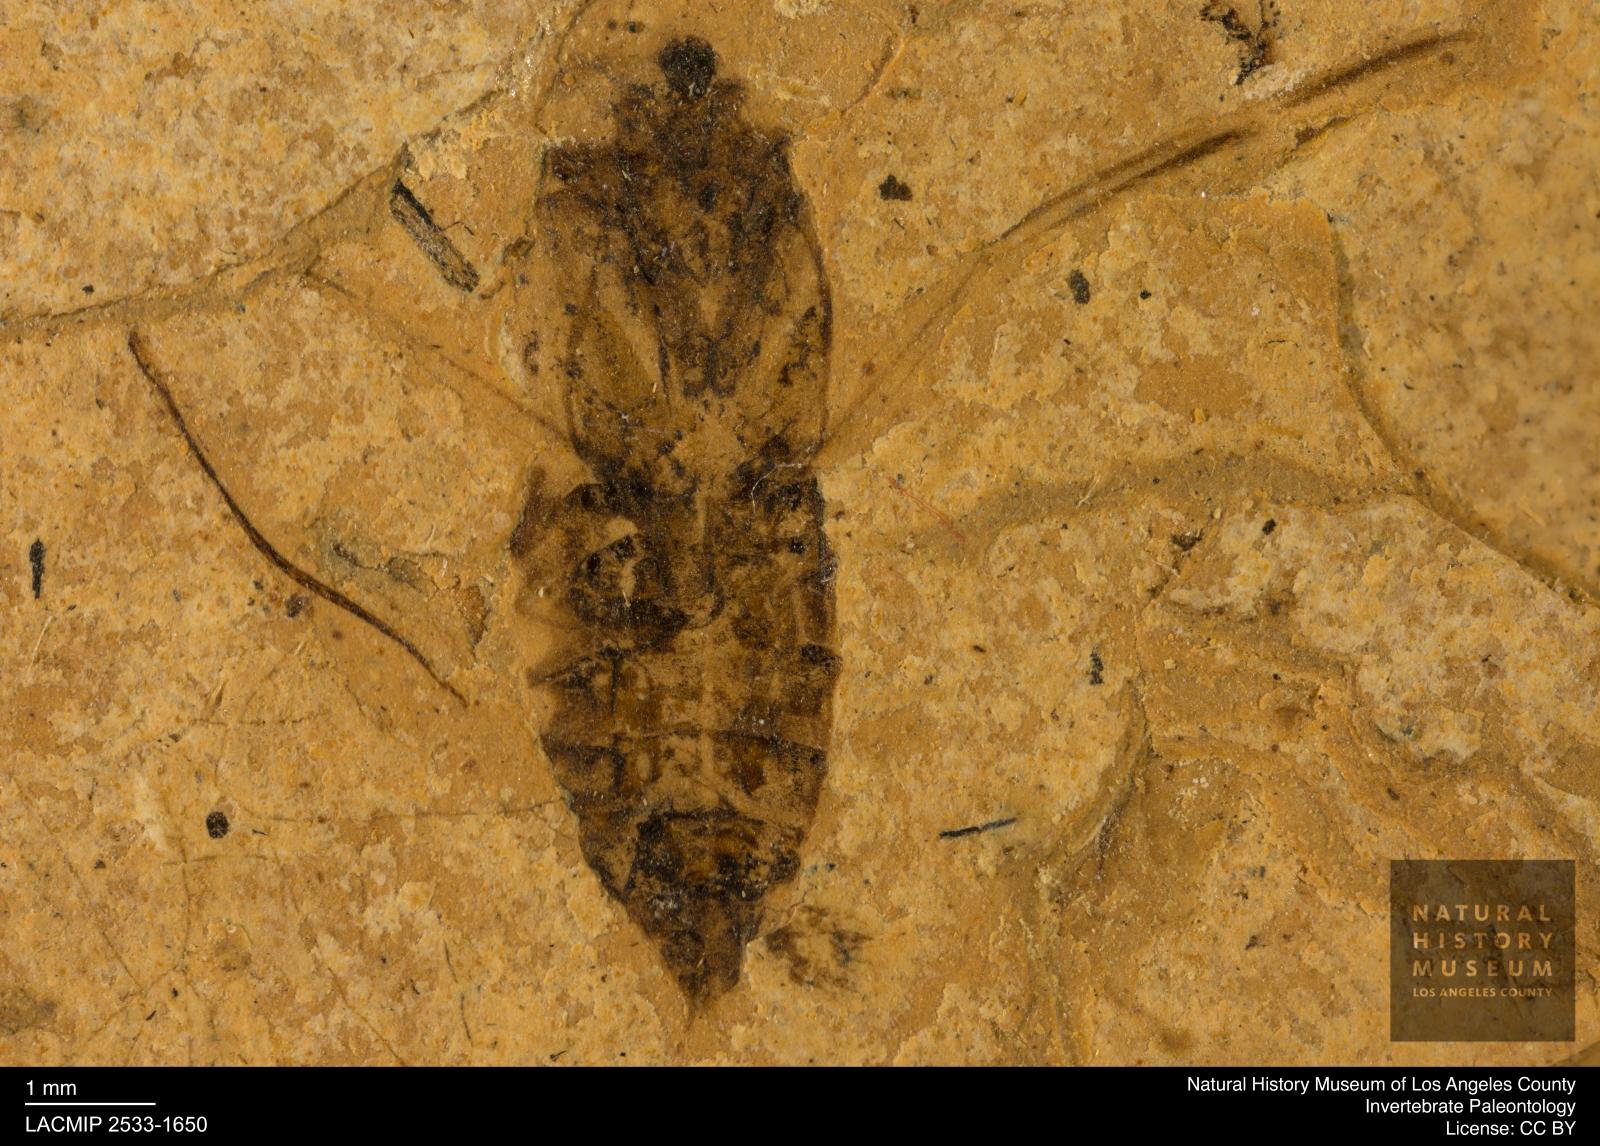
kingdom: Animalia
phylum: Arthropoda
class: Insecta
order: Hemiptera
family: Notonectidae
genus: Notonecta
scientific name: Notonecta
